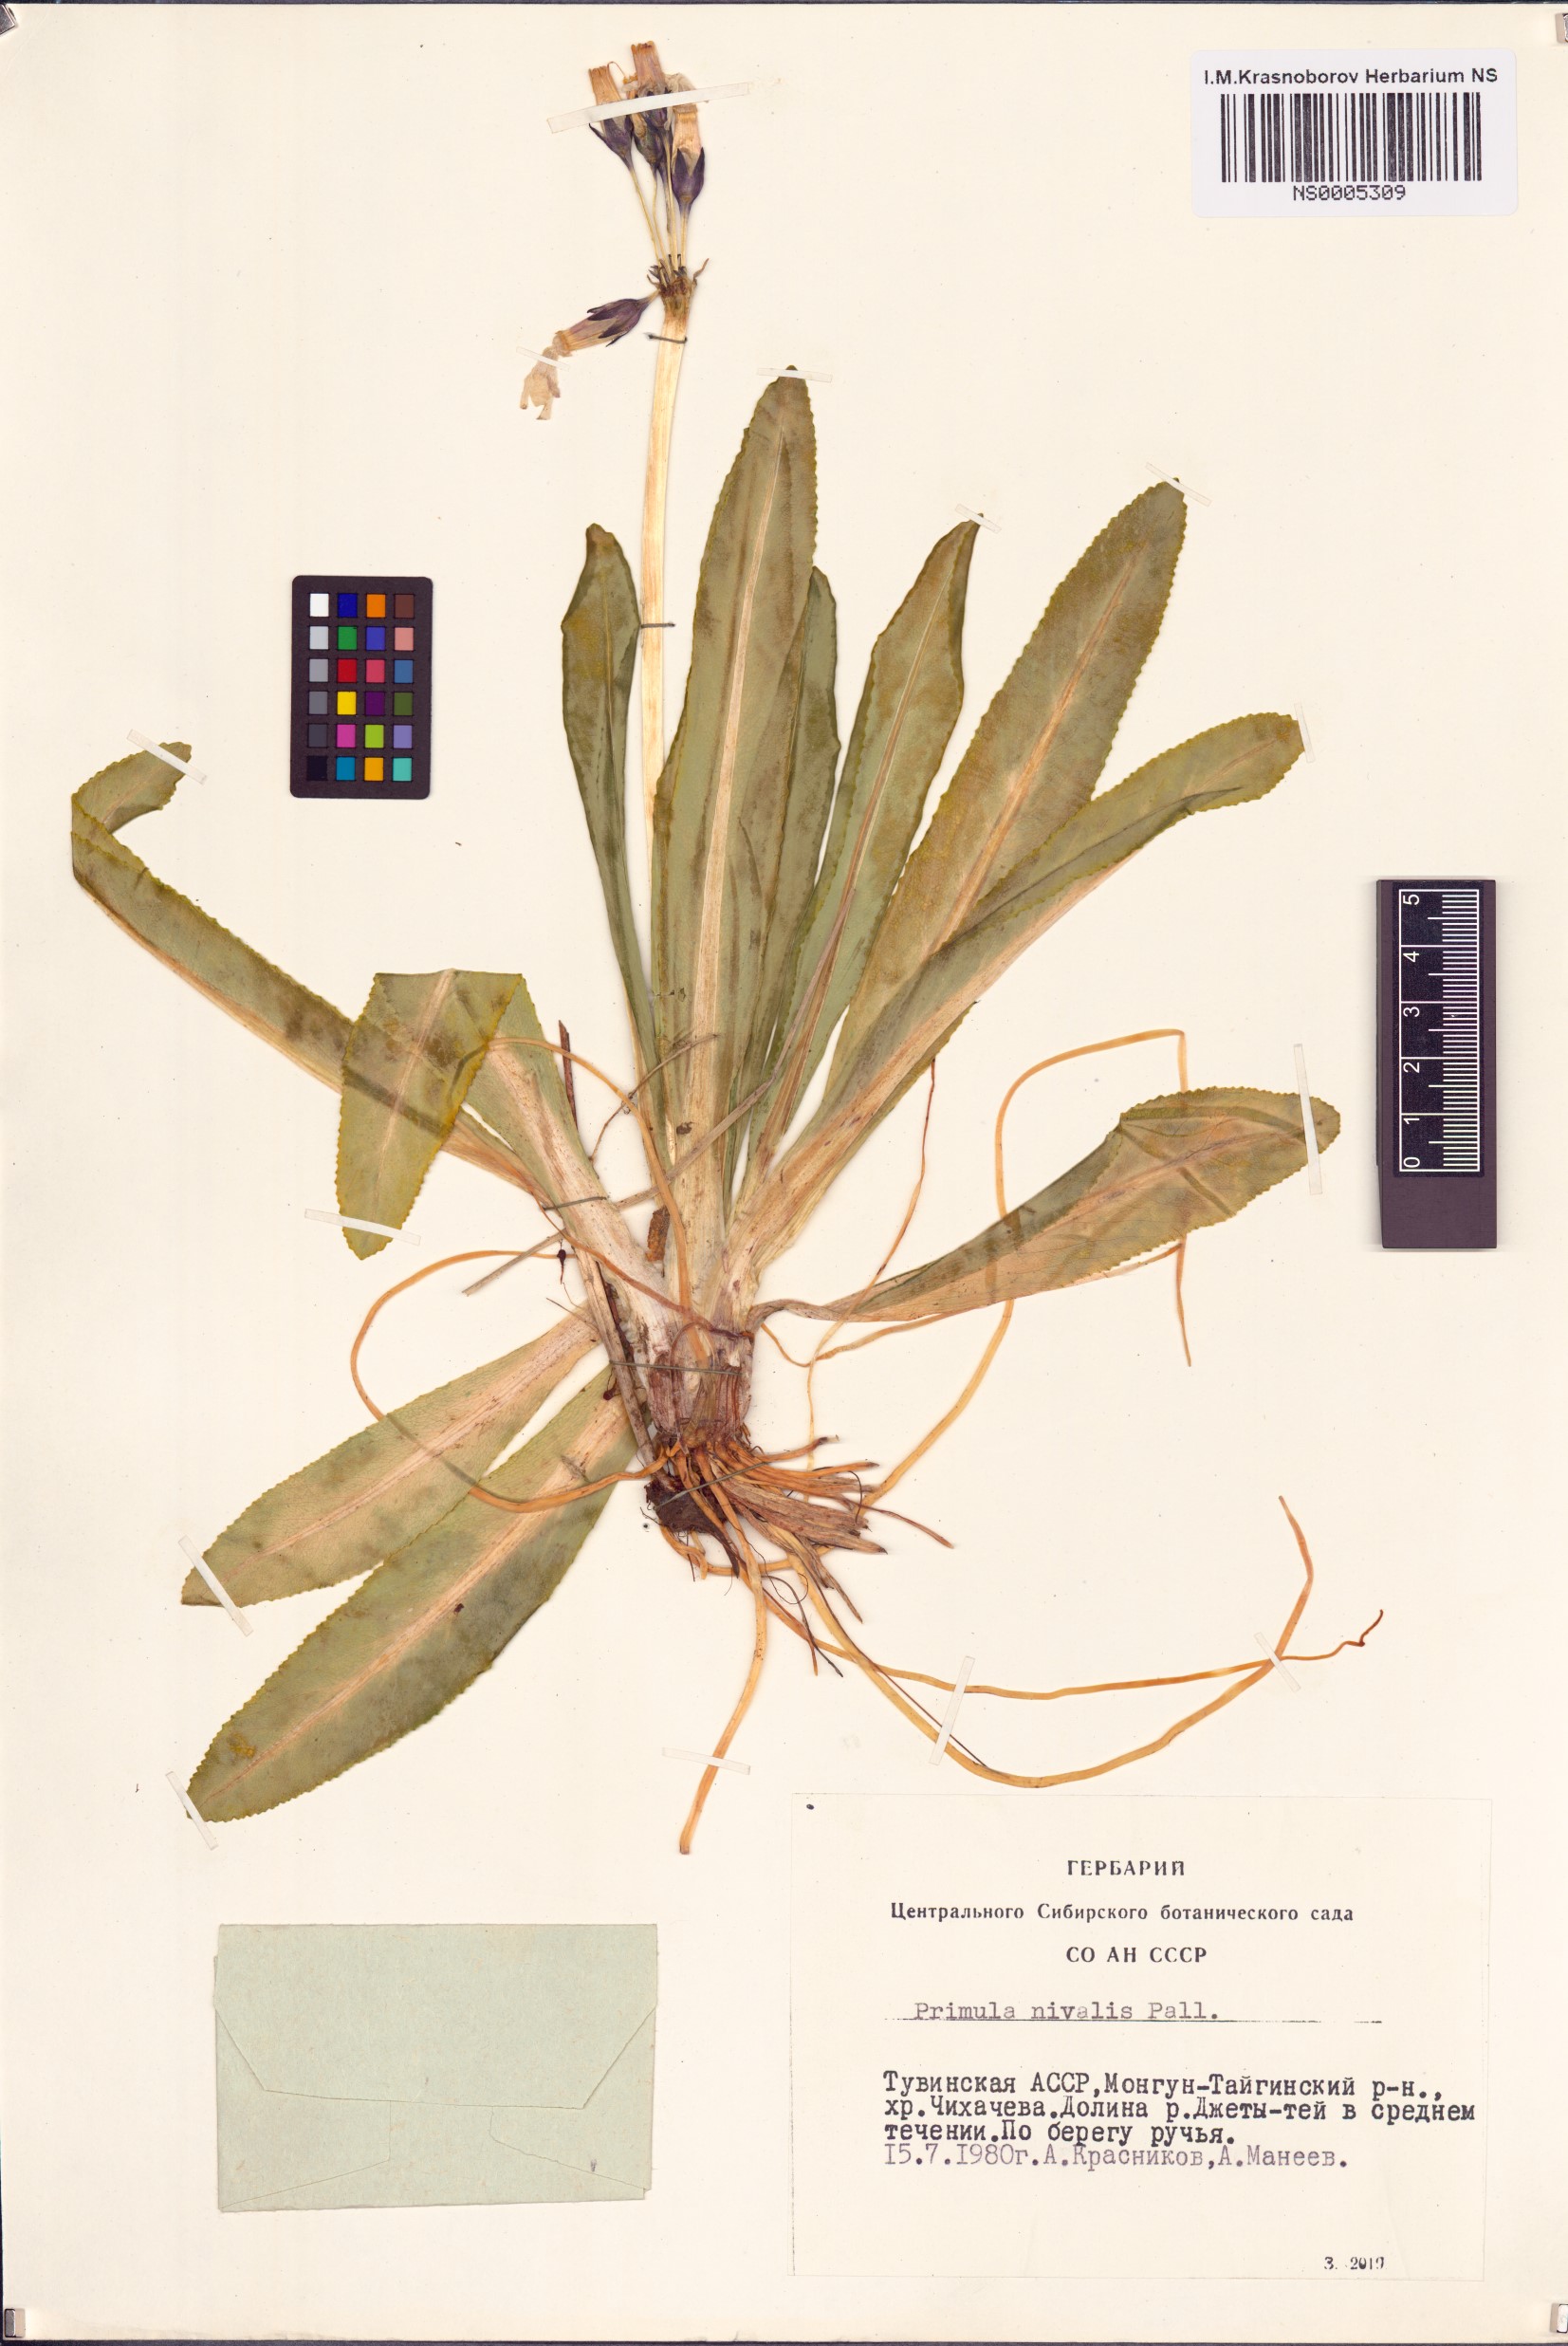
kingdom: Plantae
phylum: Tracheophyta
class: Magnoliopsida
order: Ericales
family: Primulaceae
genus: Primula
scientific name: Primula nivalis
